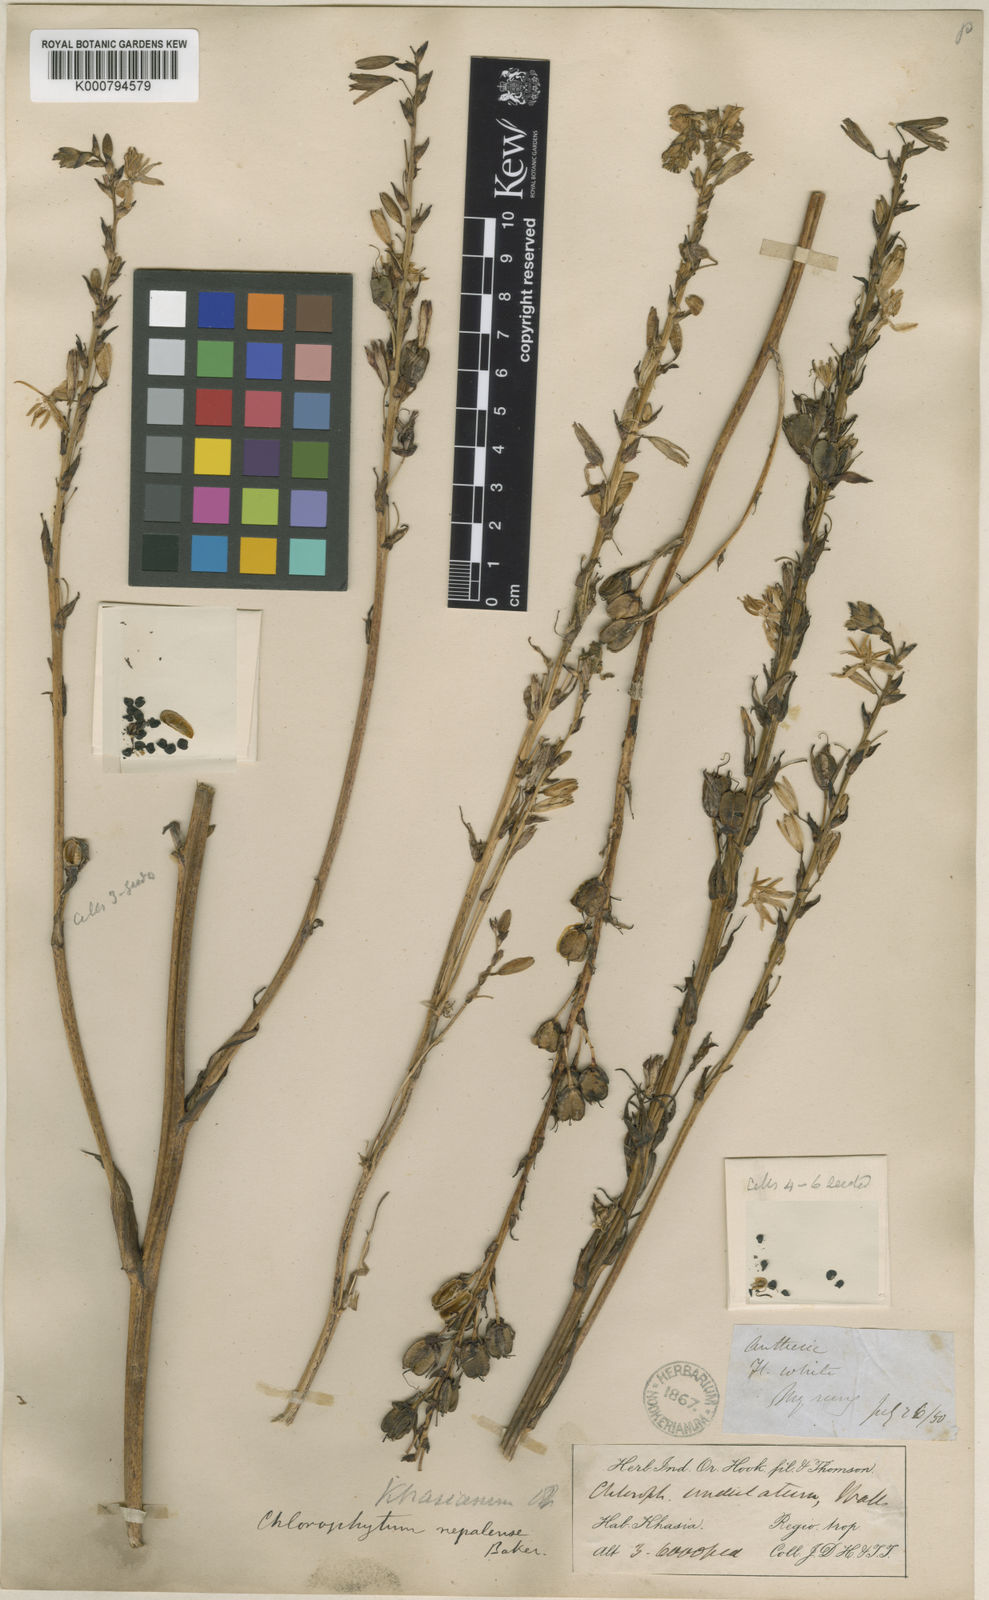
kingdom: Plantae
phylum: Tracheophyta
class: Liliopsida
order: Asparagales
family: Asparagaceae
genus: Chlorophytum
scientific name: Chlorophytum nepalense
